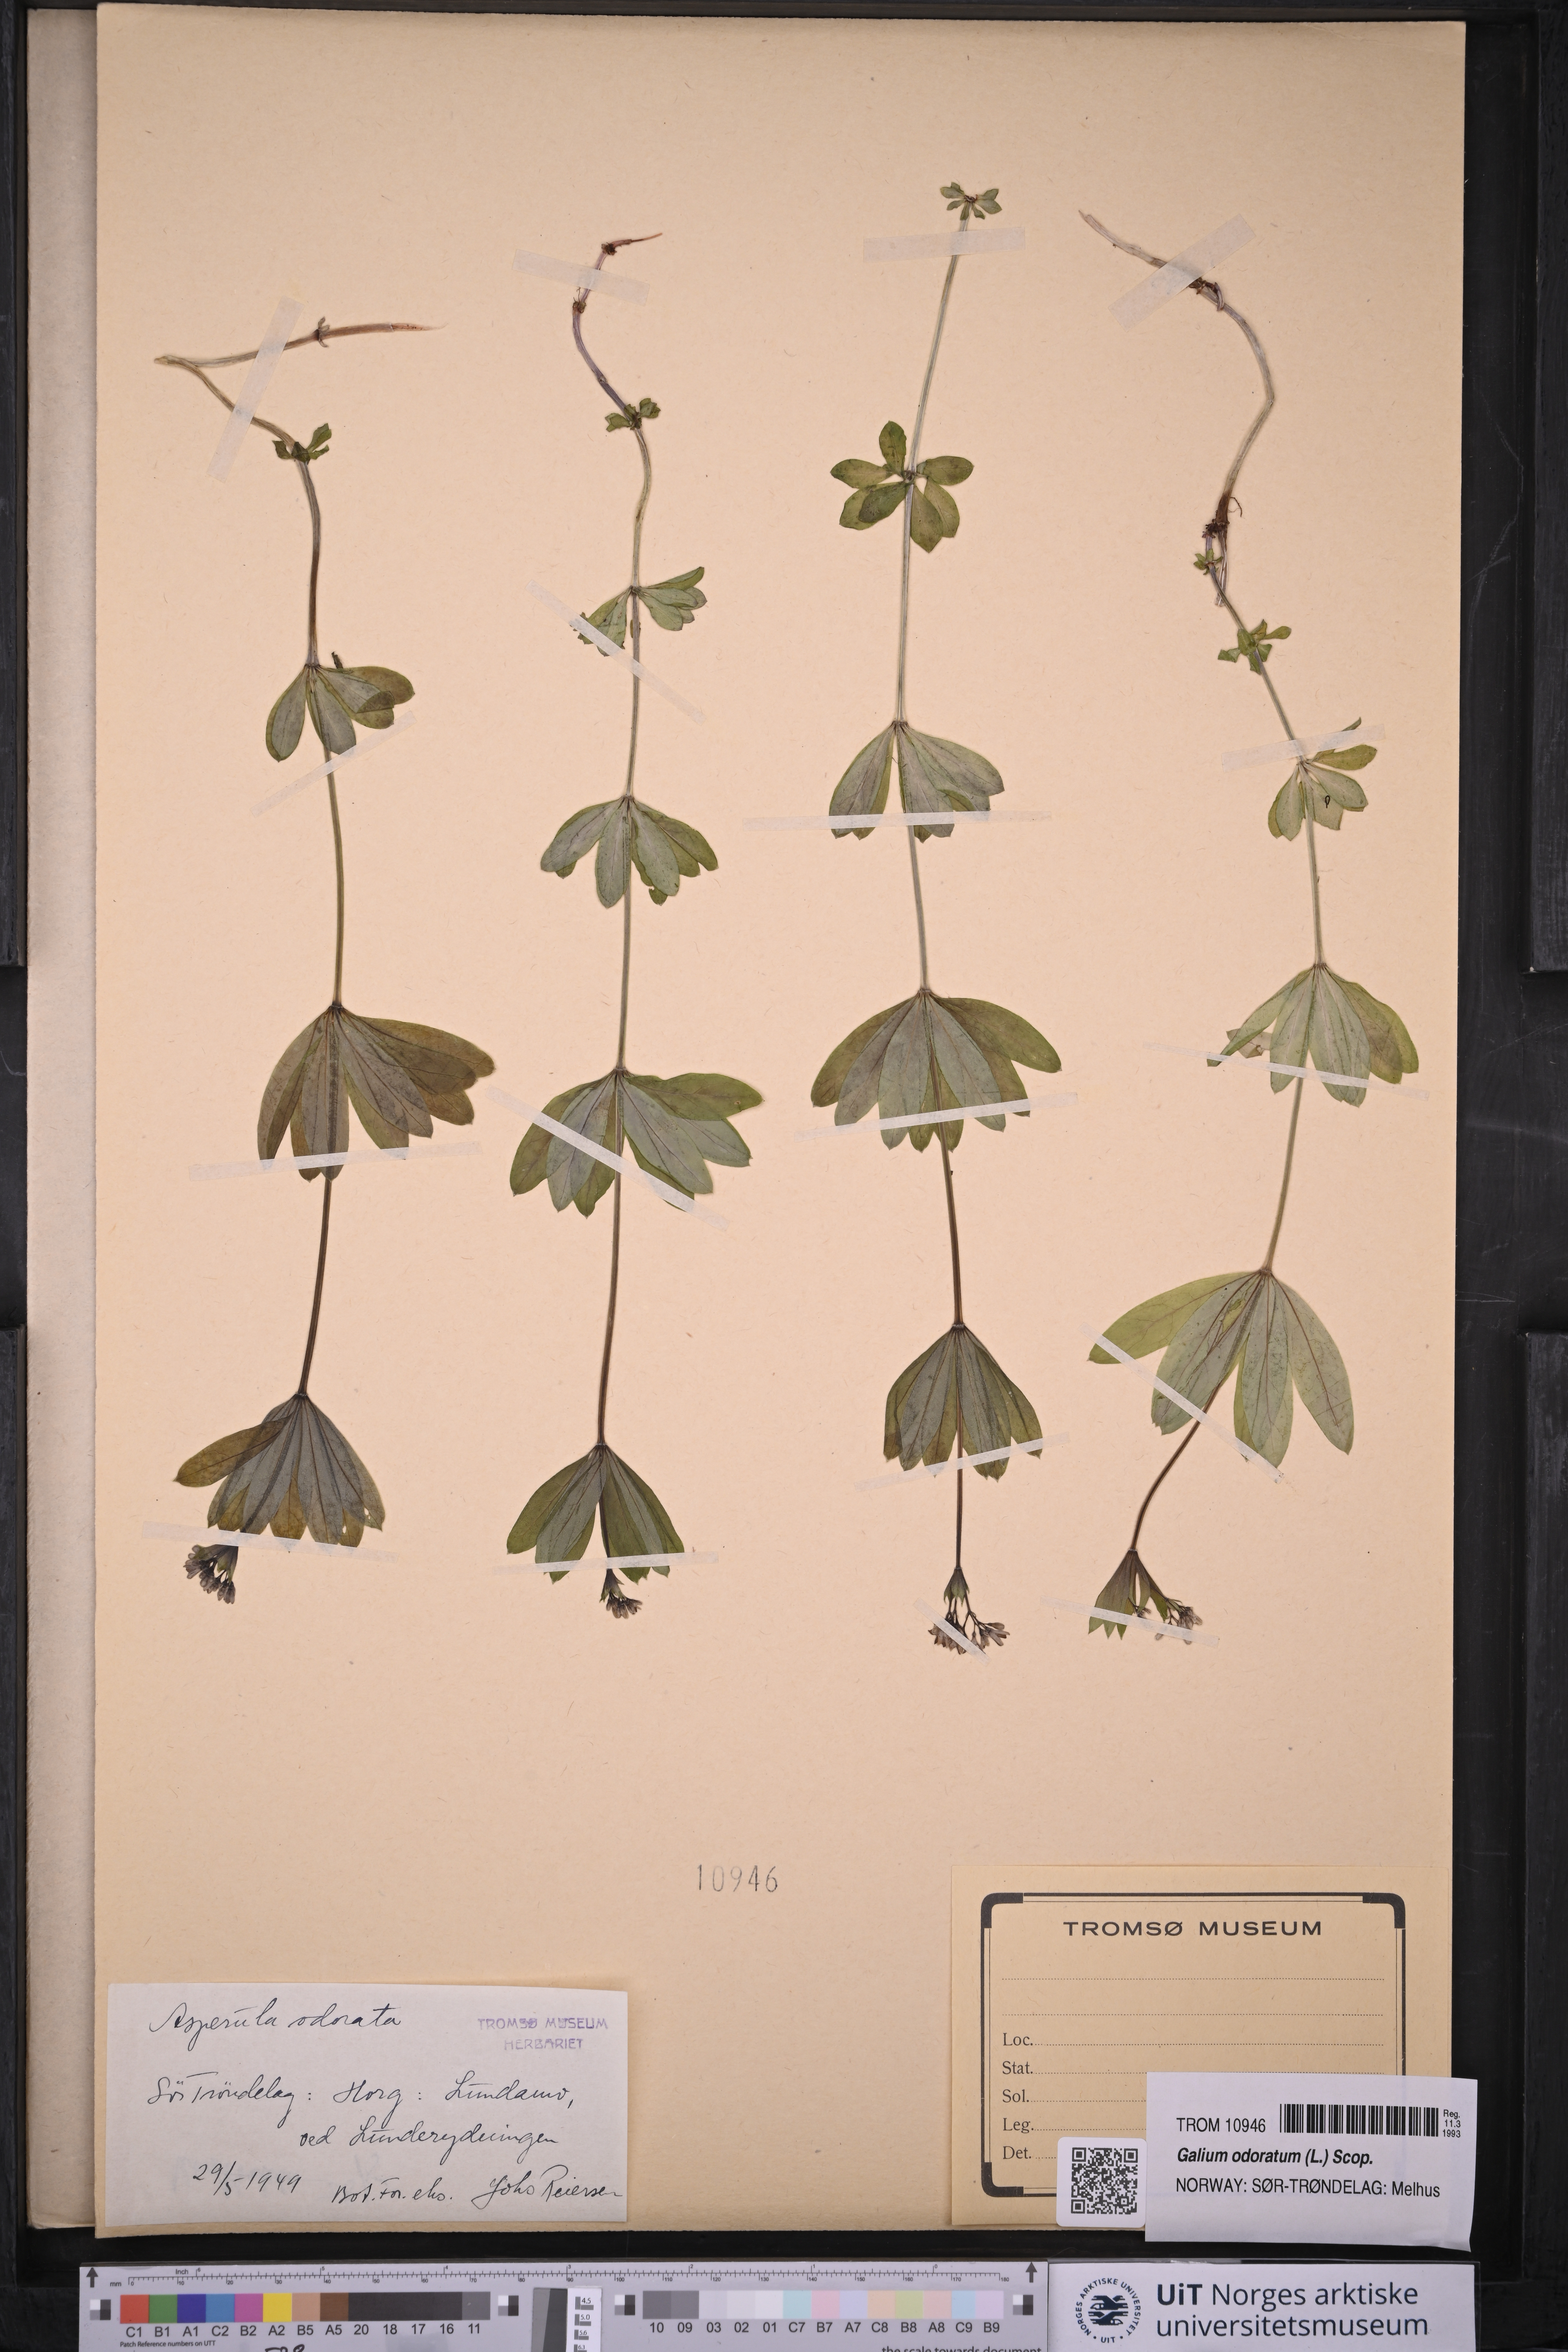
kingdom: Plantae
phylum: Tracheophyta
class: Magnoliopsida
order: Gentianales
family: Rubiaceae
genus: Galium
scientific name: Galium odoratum
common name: Sweet woodruff
